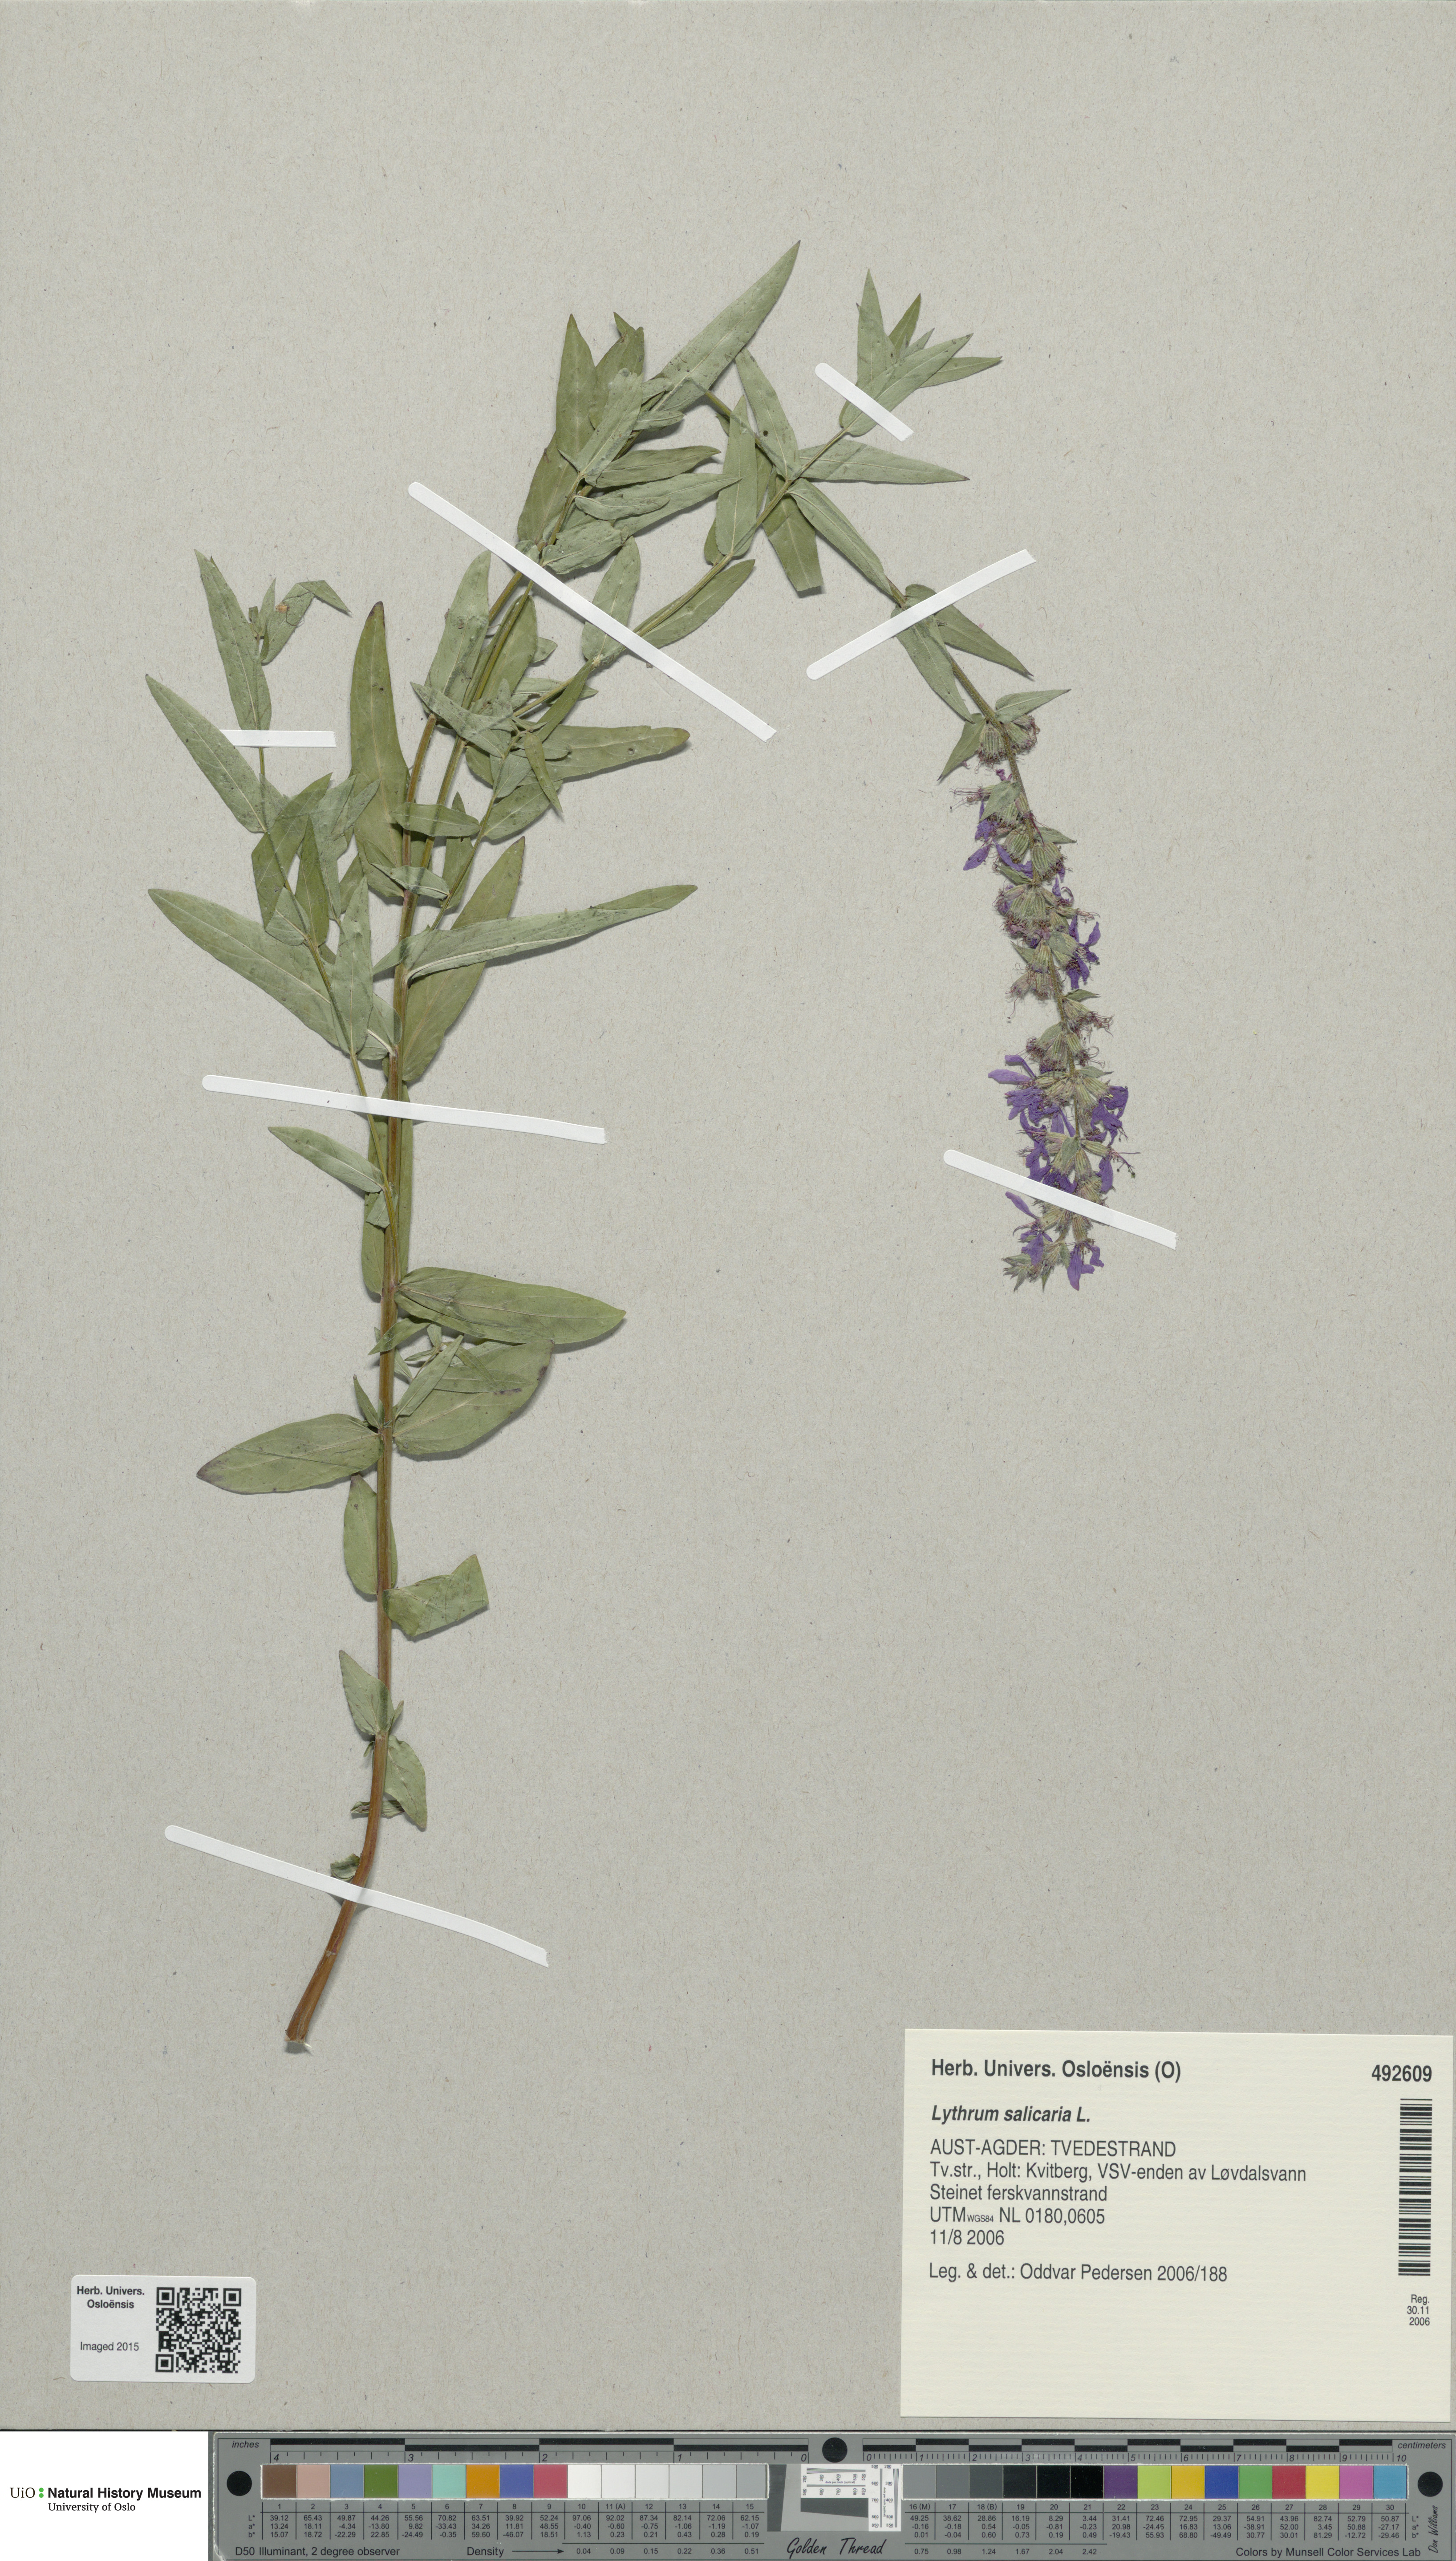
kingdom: Plantae
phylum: Tracheophyta
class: Magnoliopsida
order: Myrtales
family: Lythraceae
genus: Lythrum
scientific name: Lythrum salicaria
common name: Purple loosestrife
